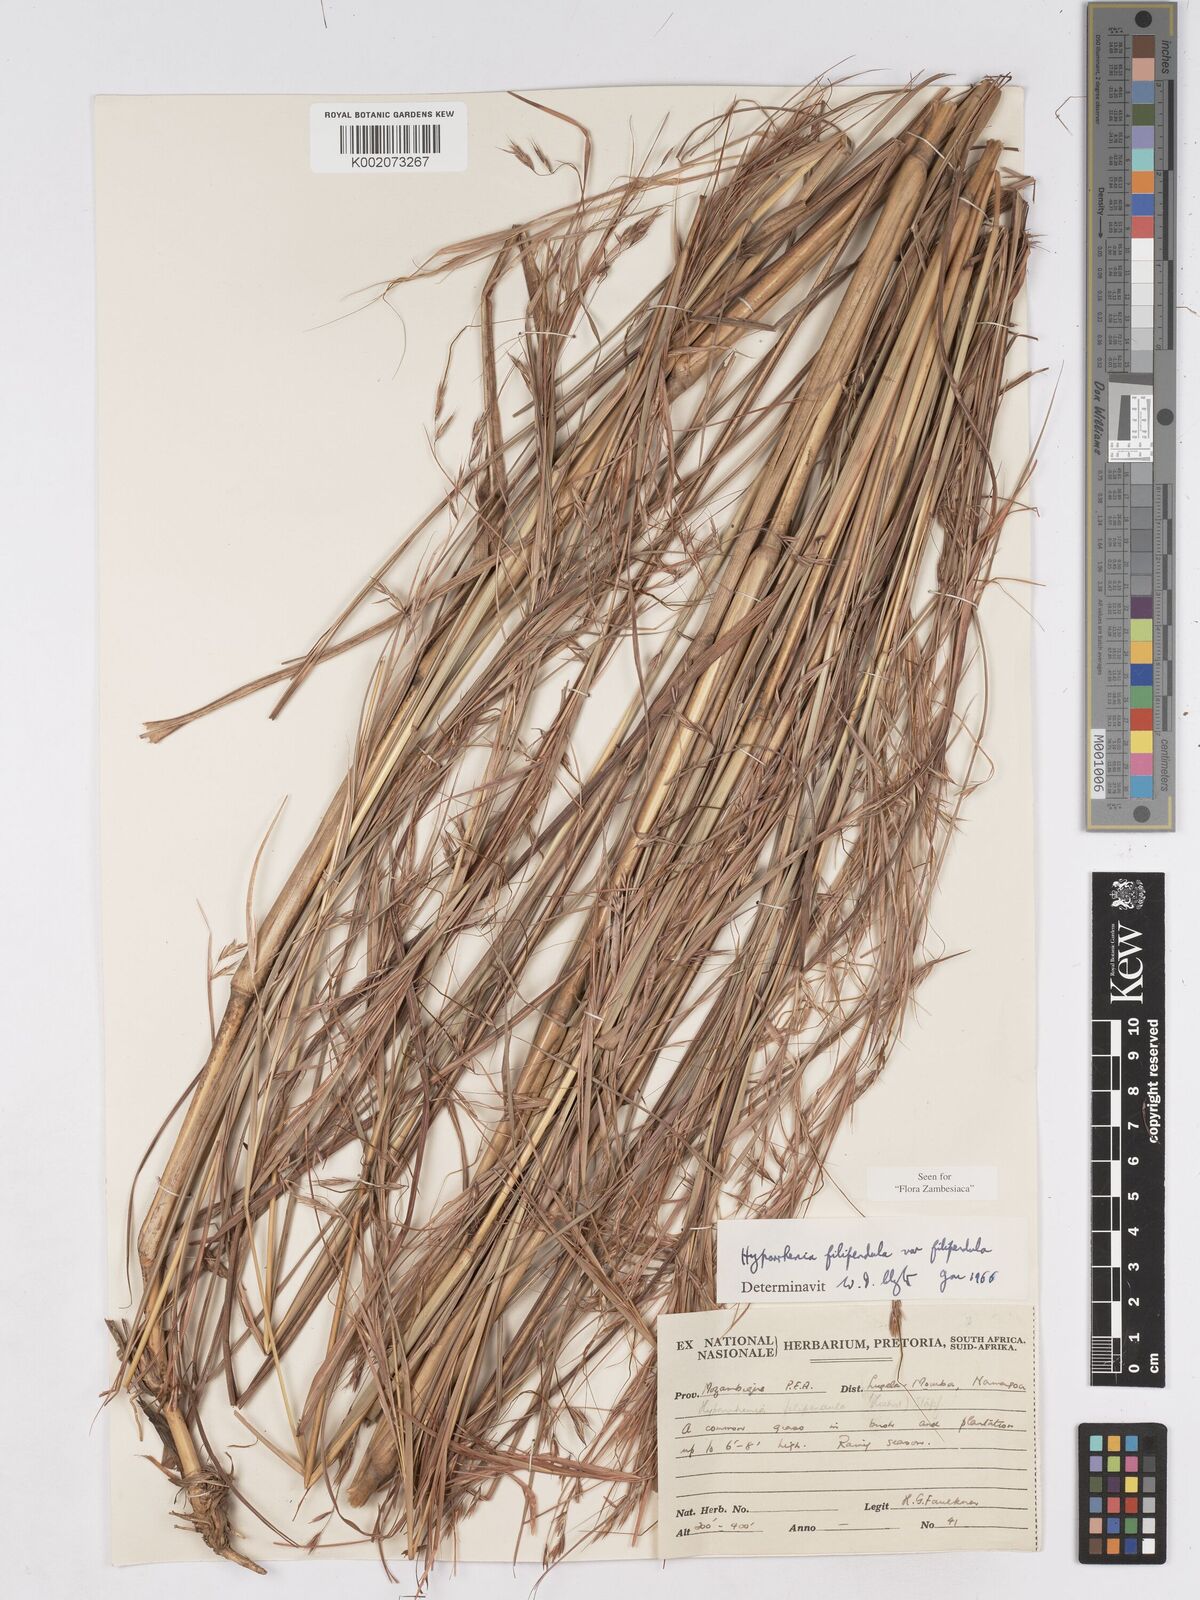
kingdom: Plantae
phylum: Tracheophyta
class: Liliopsida
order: Poales
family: Poaceae
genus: Hyparrhenia
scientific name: Hyparrhenia filipendula
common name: Tambookie grass
